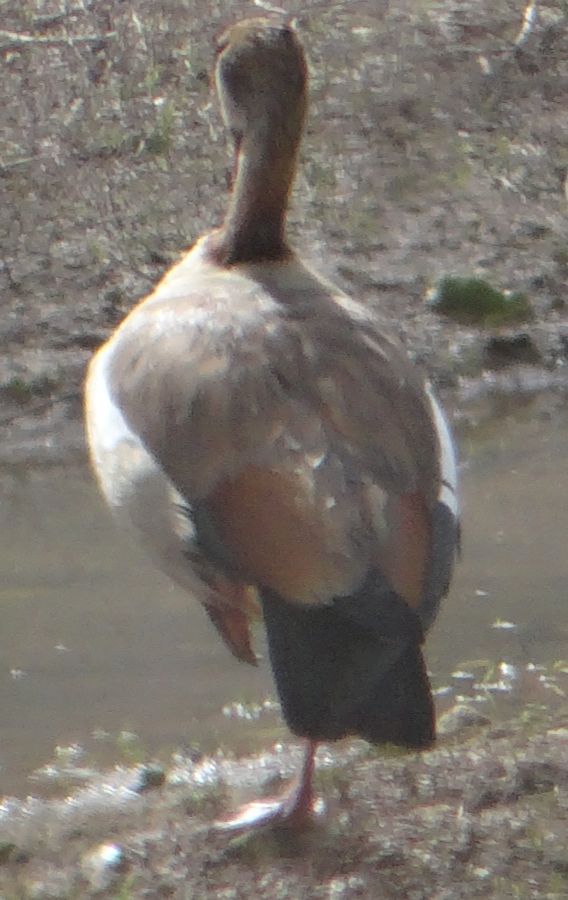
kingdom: Animalia
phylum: Chordata
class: Aves
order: Anseriformes
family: Anatidae
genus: Alopochen
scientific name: Alopochen aegyptiaca
